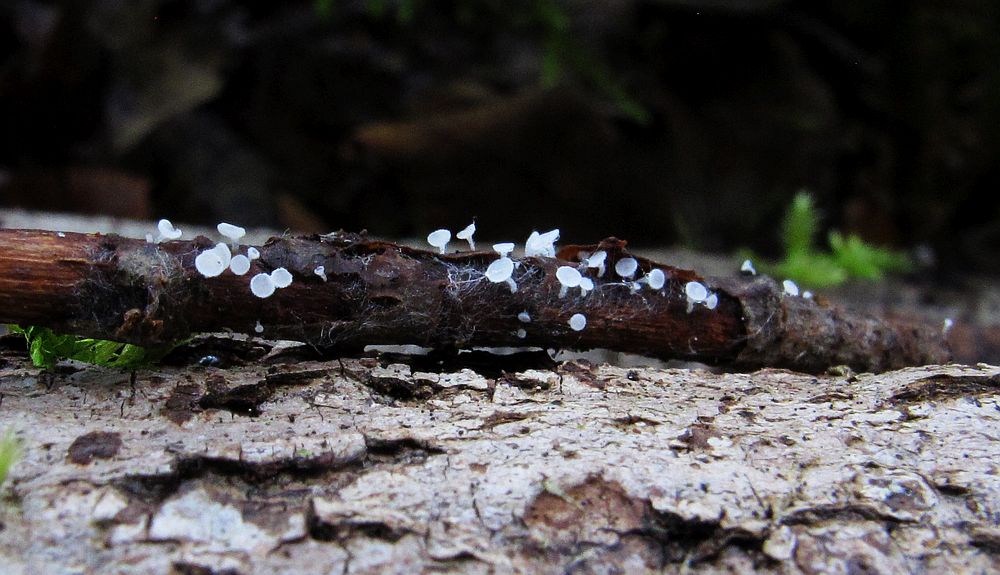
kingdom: Fungi
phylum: Ascomycota
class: Leotiomycetes
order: Helotiales
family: Lachnaceae
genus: Lachnum
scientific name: Lachnum subvirgineum
